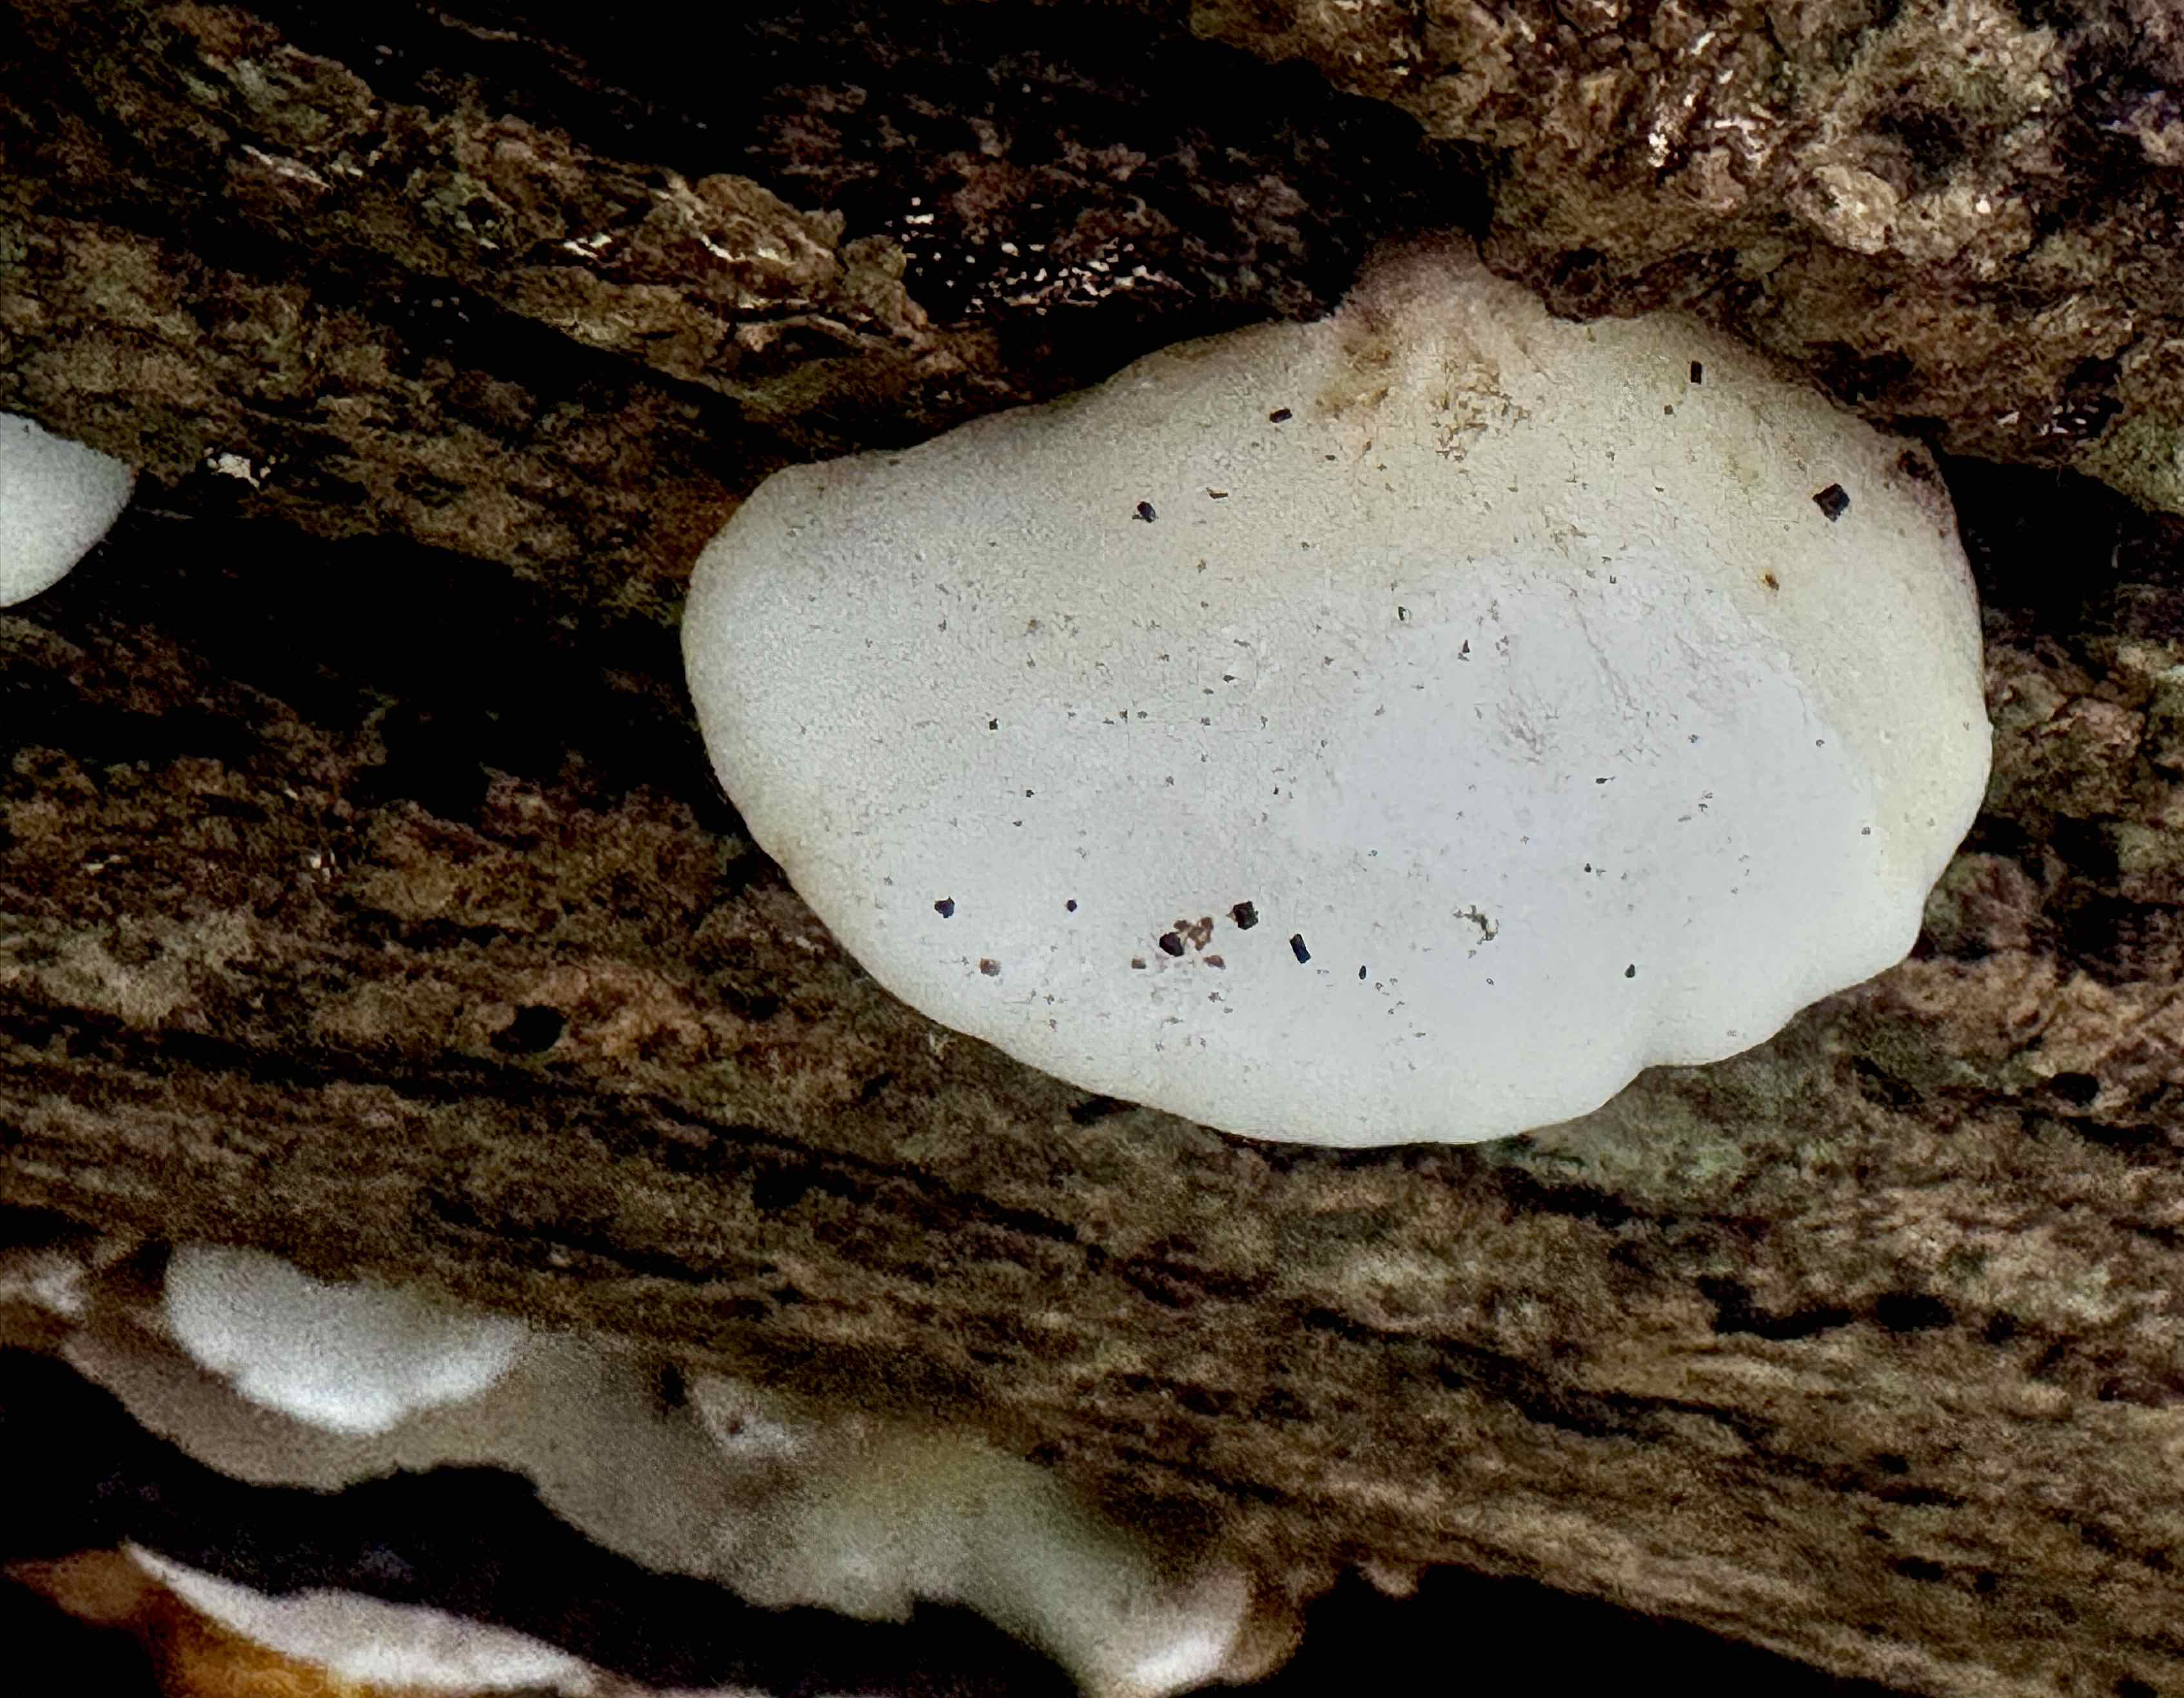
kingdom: Fungi
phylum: Basidiomycota
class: Agaricomycetes
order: Agaricales
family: Crepidotaceae
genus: Crepidotus
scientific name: Crepidotus mollis
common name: blød muslingesvamp
